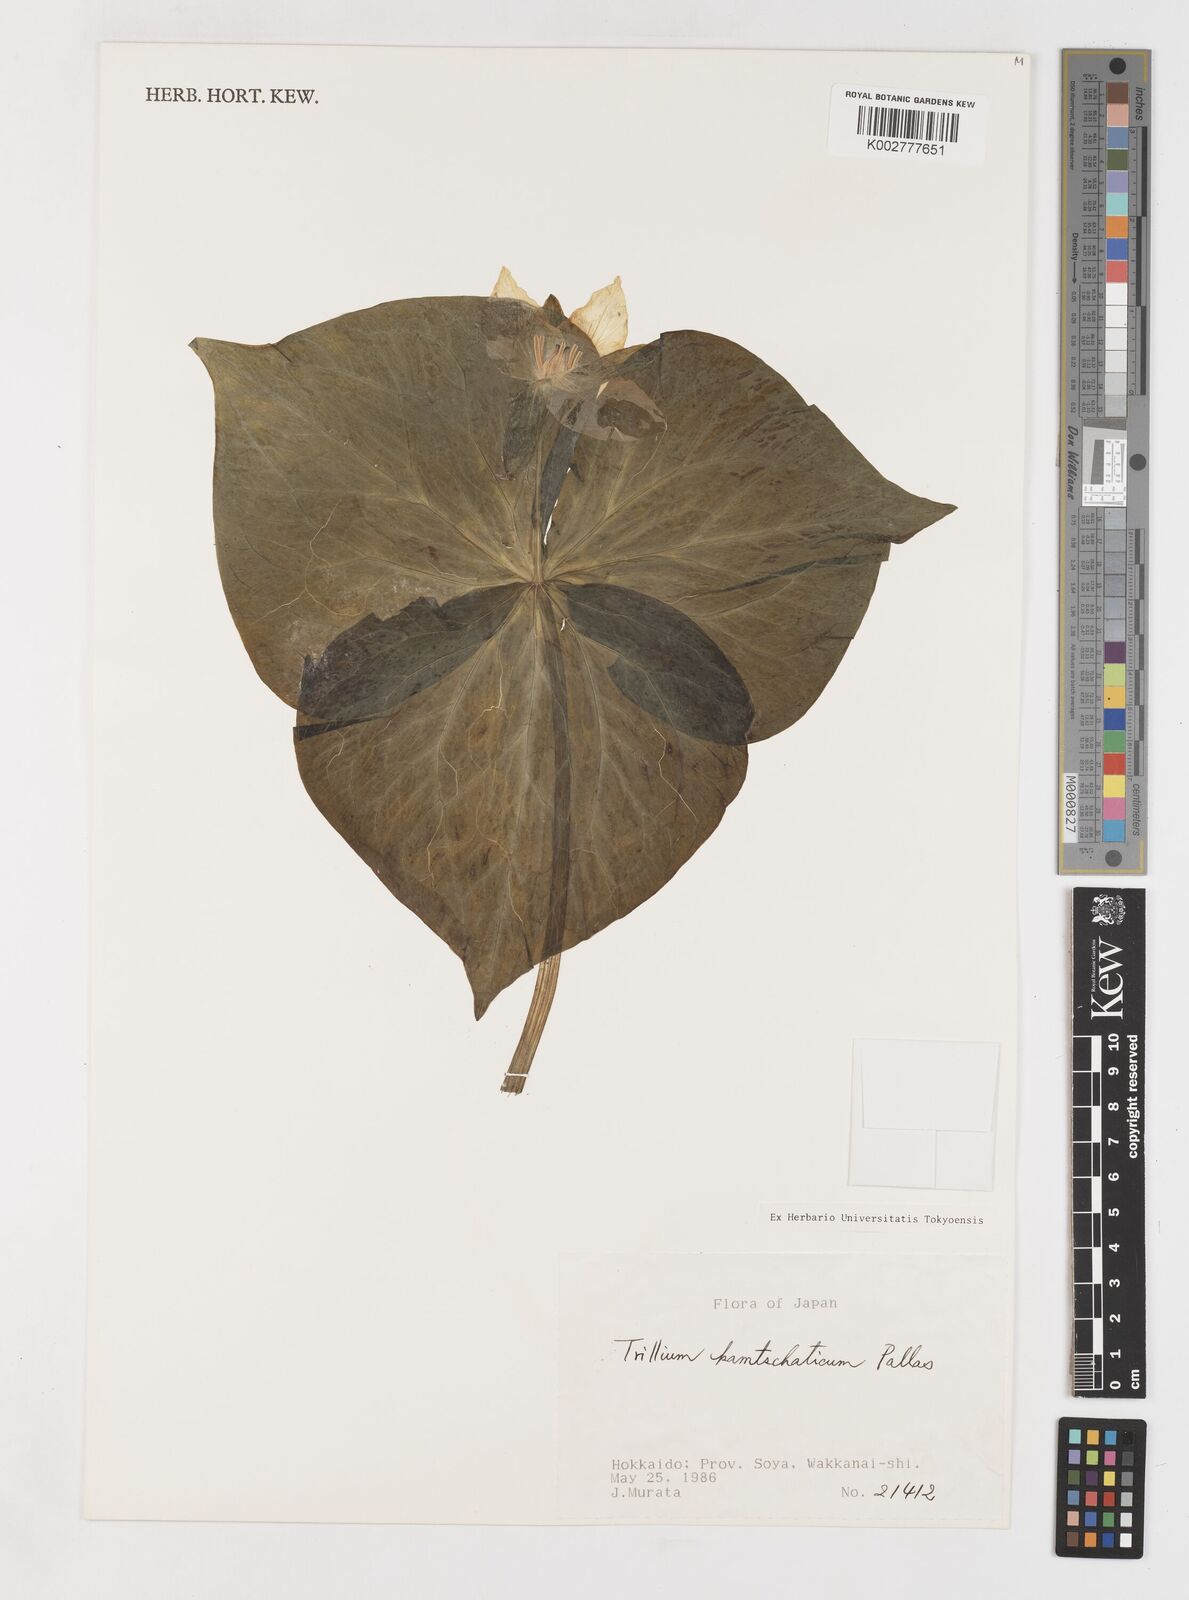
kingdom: Plantae
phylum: Tracheophyta
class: Liliopsida
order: Liliales
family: Melanthiaceae
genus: Trillium
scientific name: Trillium camschatcense
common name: Kamchatka trillium
